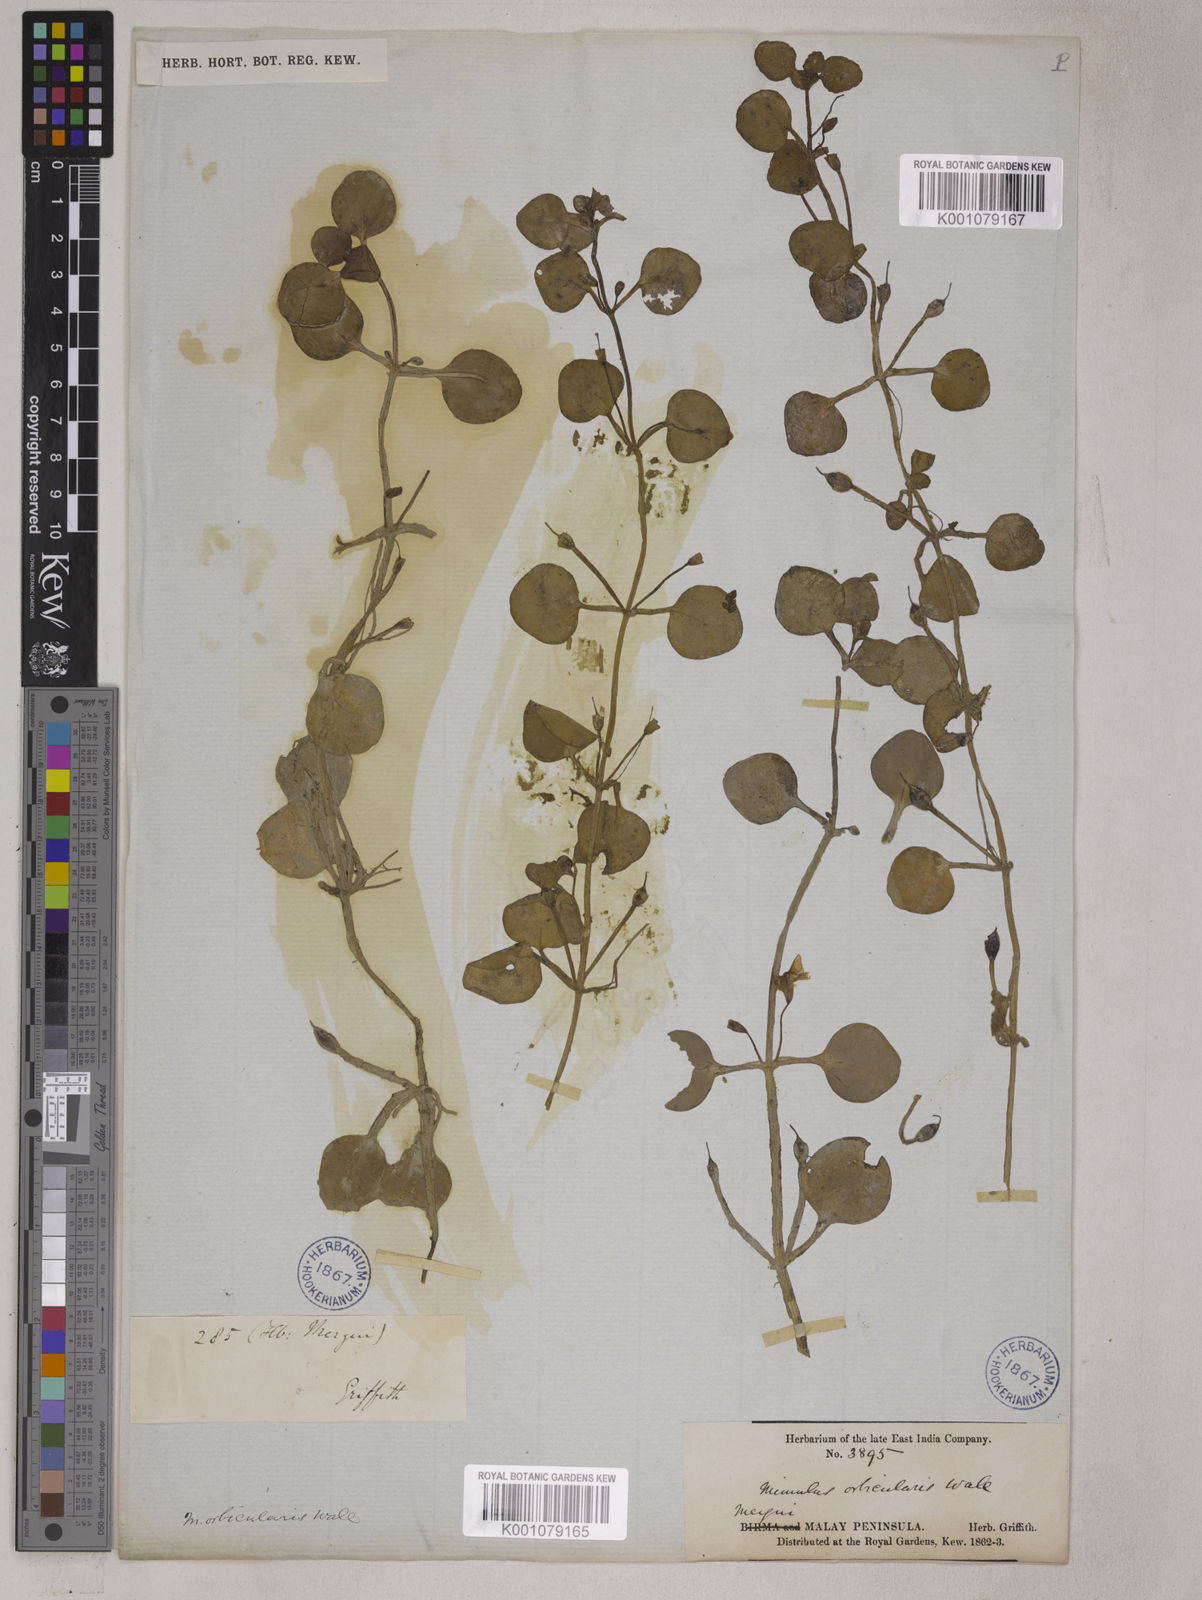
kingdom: Plantae
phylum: Tracheophyta
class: Magnoliopsida
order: Lamiales
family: Phrymaceae
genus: Mimulus
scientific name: Mimulus orbicularis
